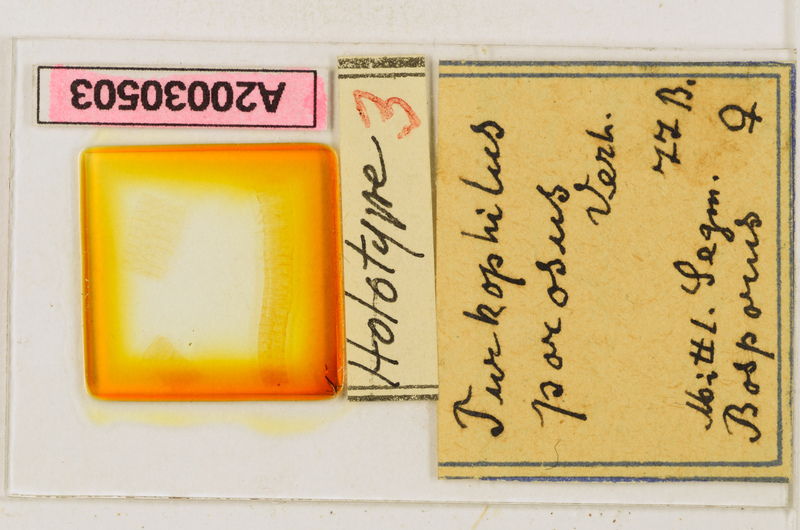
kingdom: Animalia
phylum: Arthropoda
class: Chilopoda
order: Geophilomorpha
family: Dignathodontidae
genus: Henia
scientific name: Henia porosa
